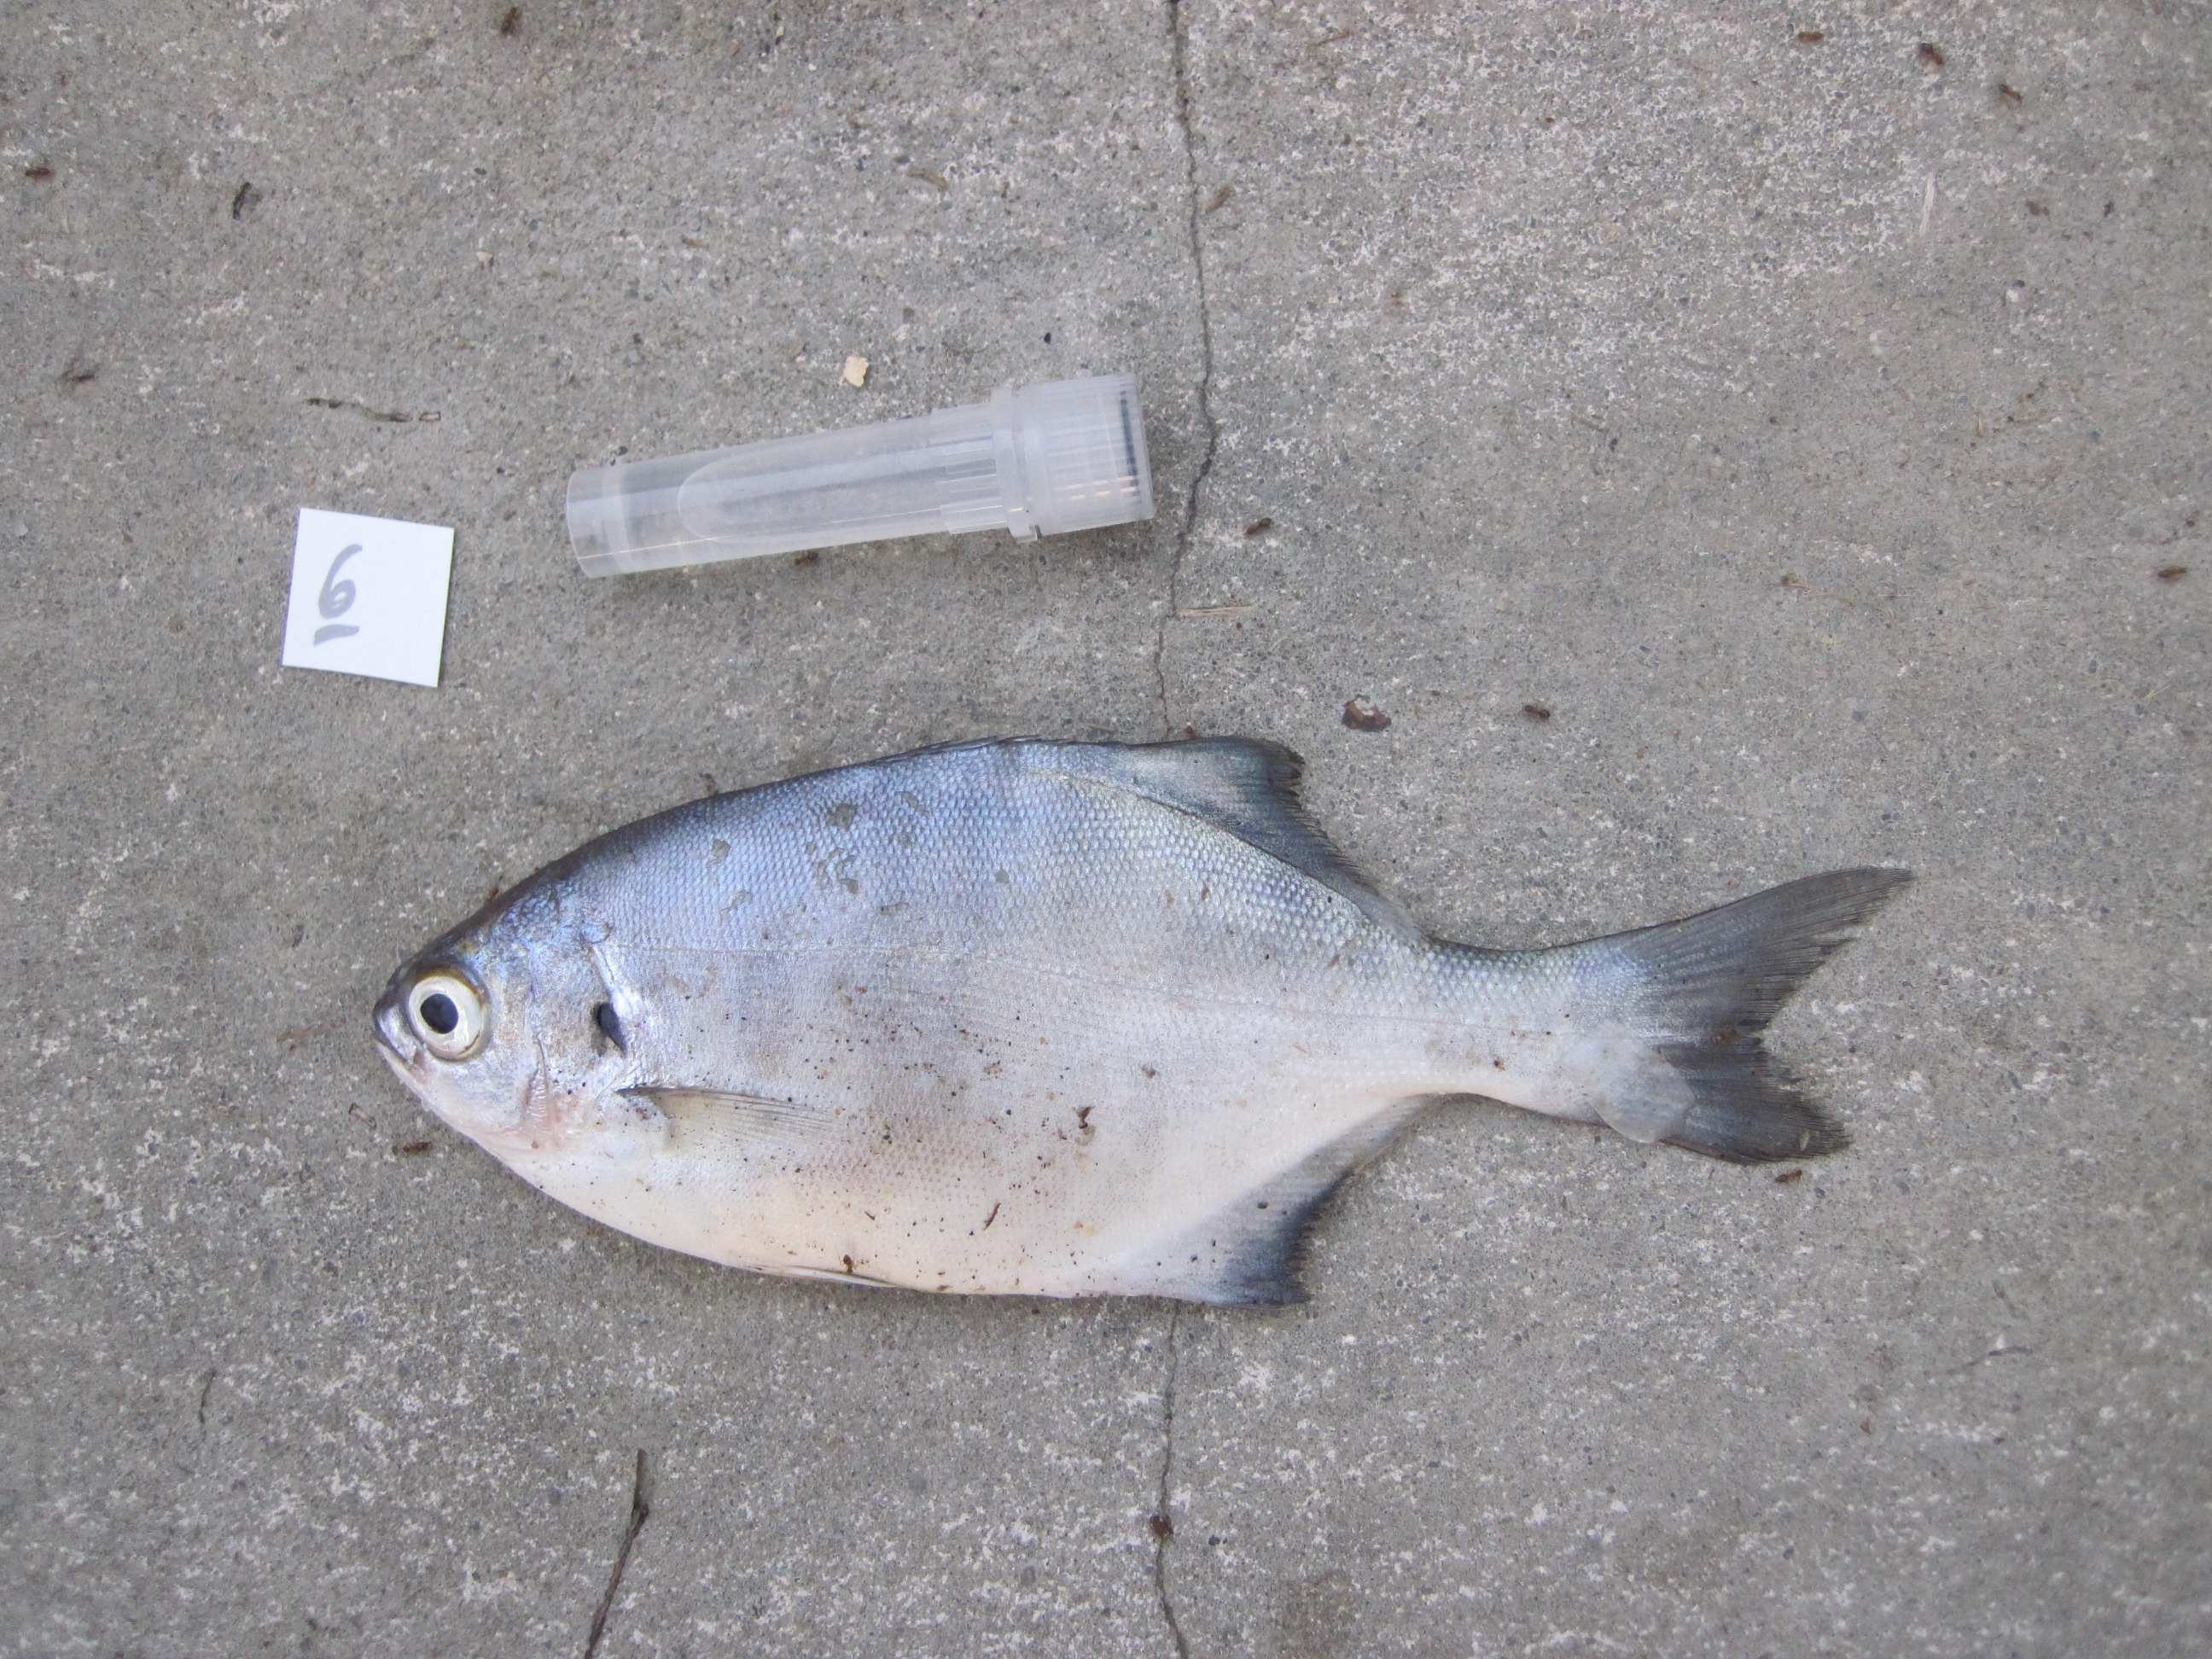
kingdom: Animalia
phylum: Chordata
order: Perciformes
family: Kyphosidae
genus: Neoscorpis
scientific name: Neoscorpis lithophilus
